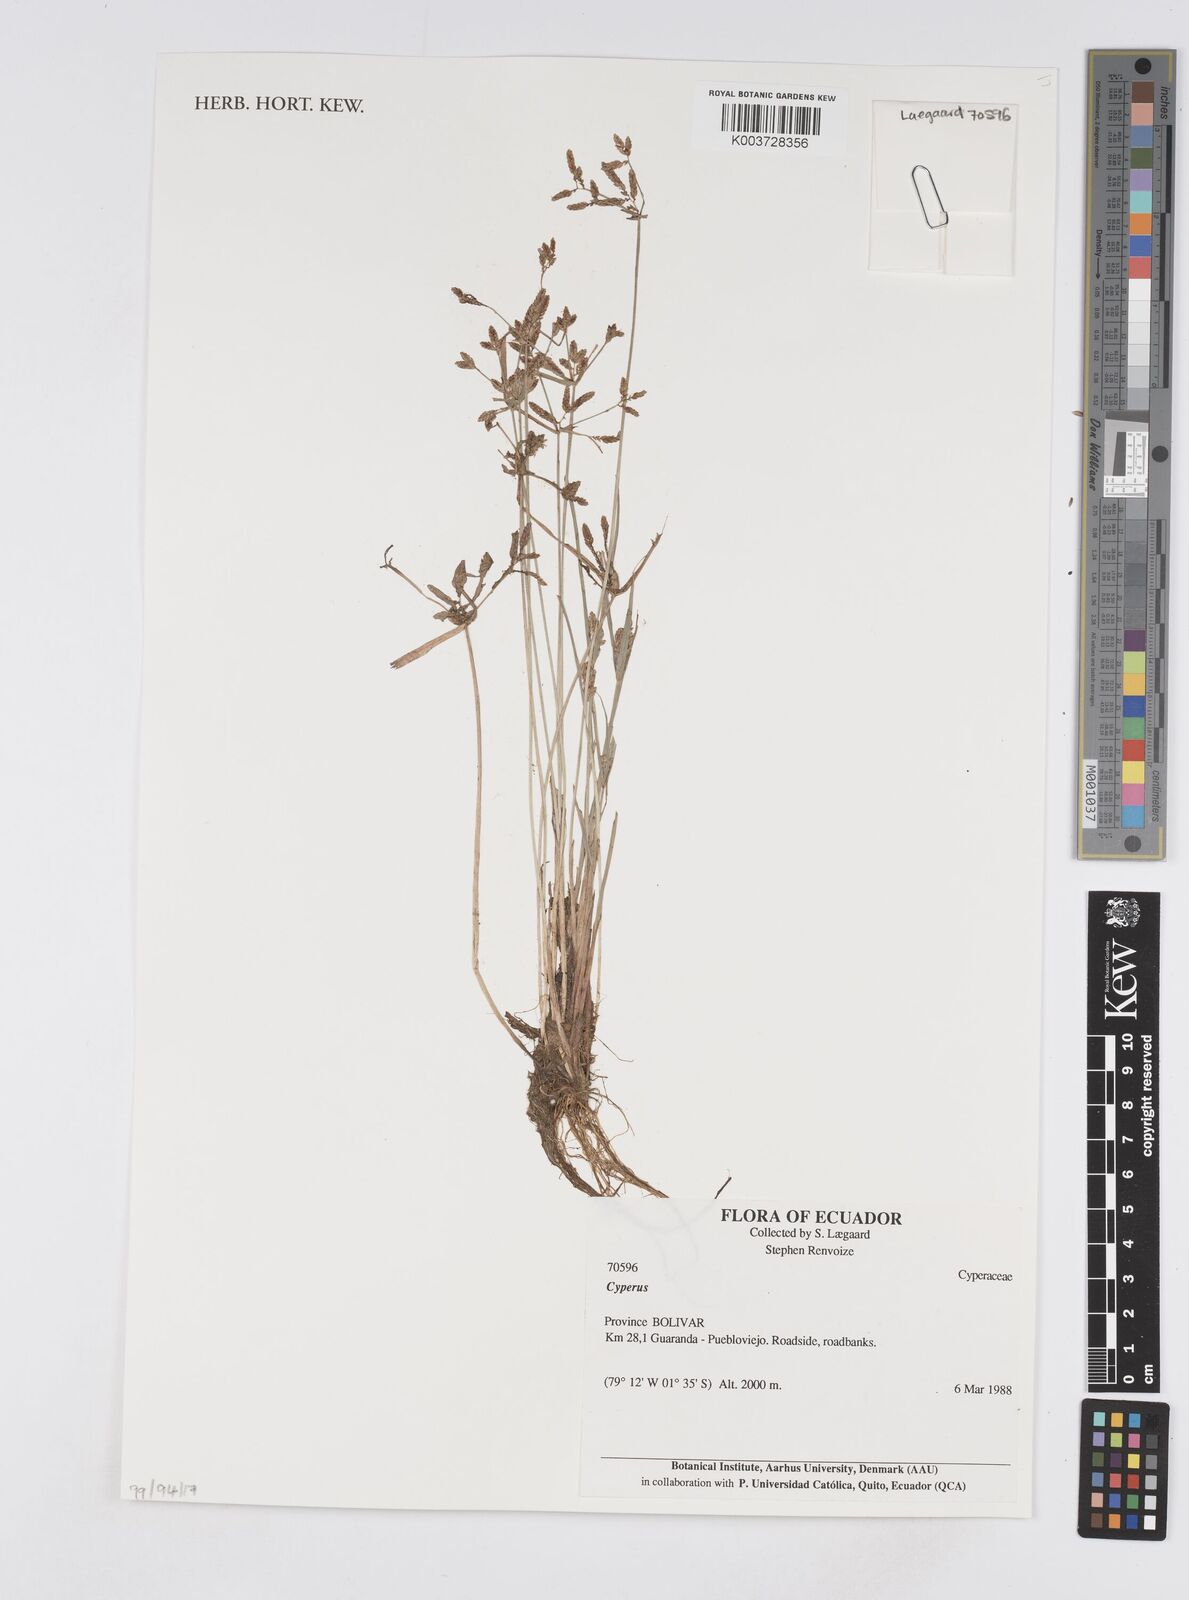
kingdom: Plantae
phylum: Tracheophyta
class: Liliopsida
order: Poales
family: Cyperaceae
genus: Cyperus
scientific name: Cyperus
